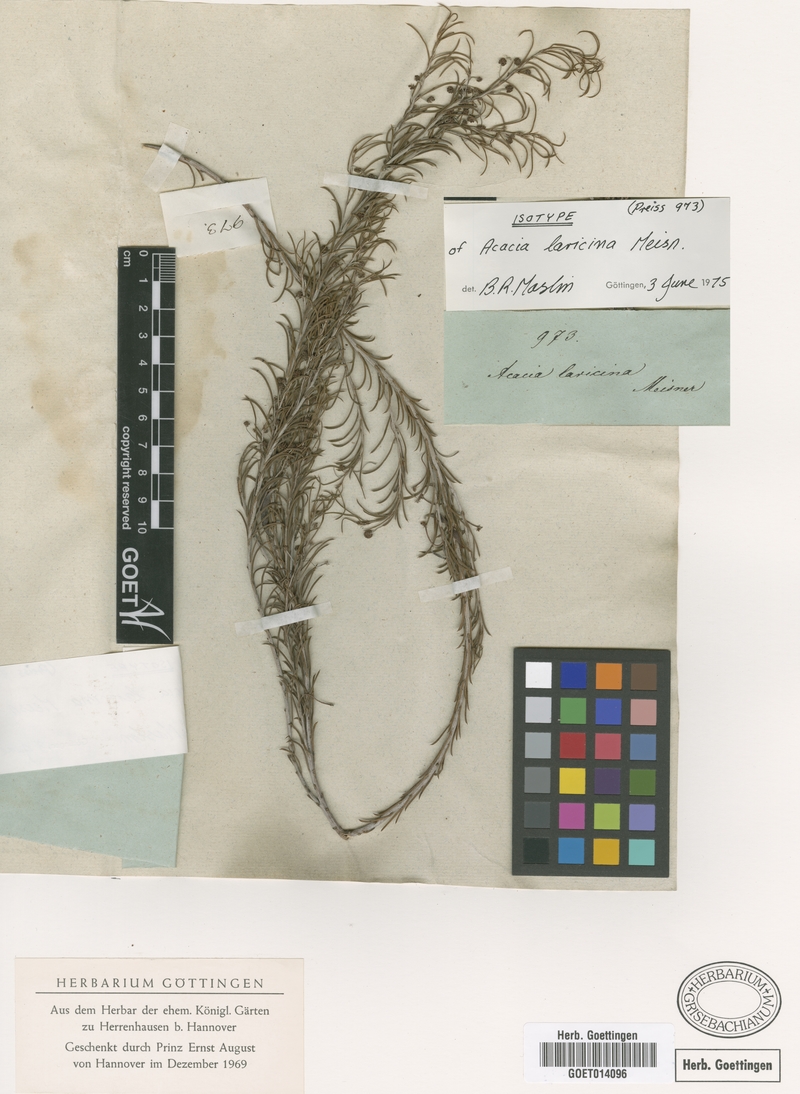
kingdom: Plantae
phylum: Tracheophyta
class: Magnoliopsida
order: Fabales
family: Fabaceae
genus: Acacia
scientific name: Acacia laricina
